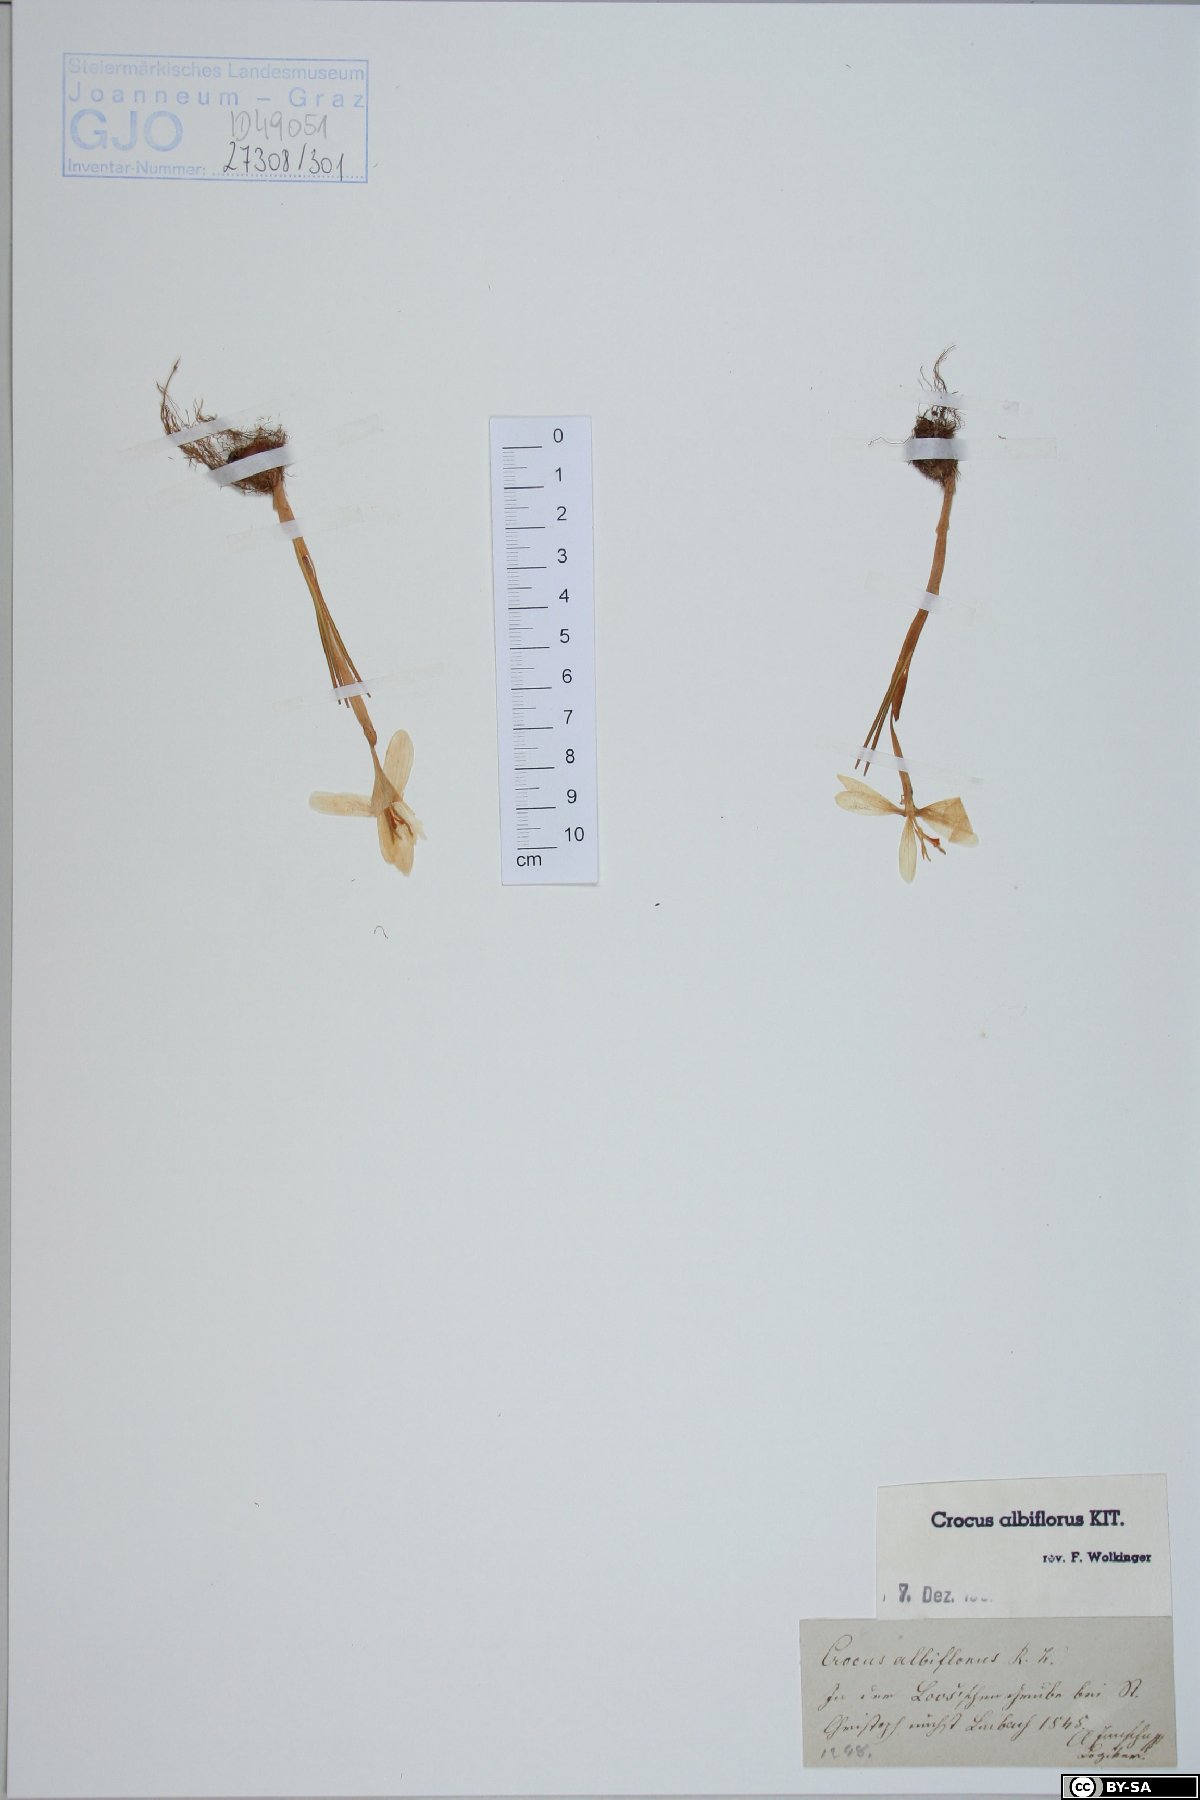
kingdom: Plantae
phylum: Tracheophyta
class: Liliopsida
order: Asparagales
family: Iridaceae
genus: Crocus
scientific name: Crocus vernus
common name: Spring crocus
